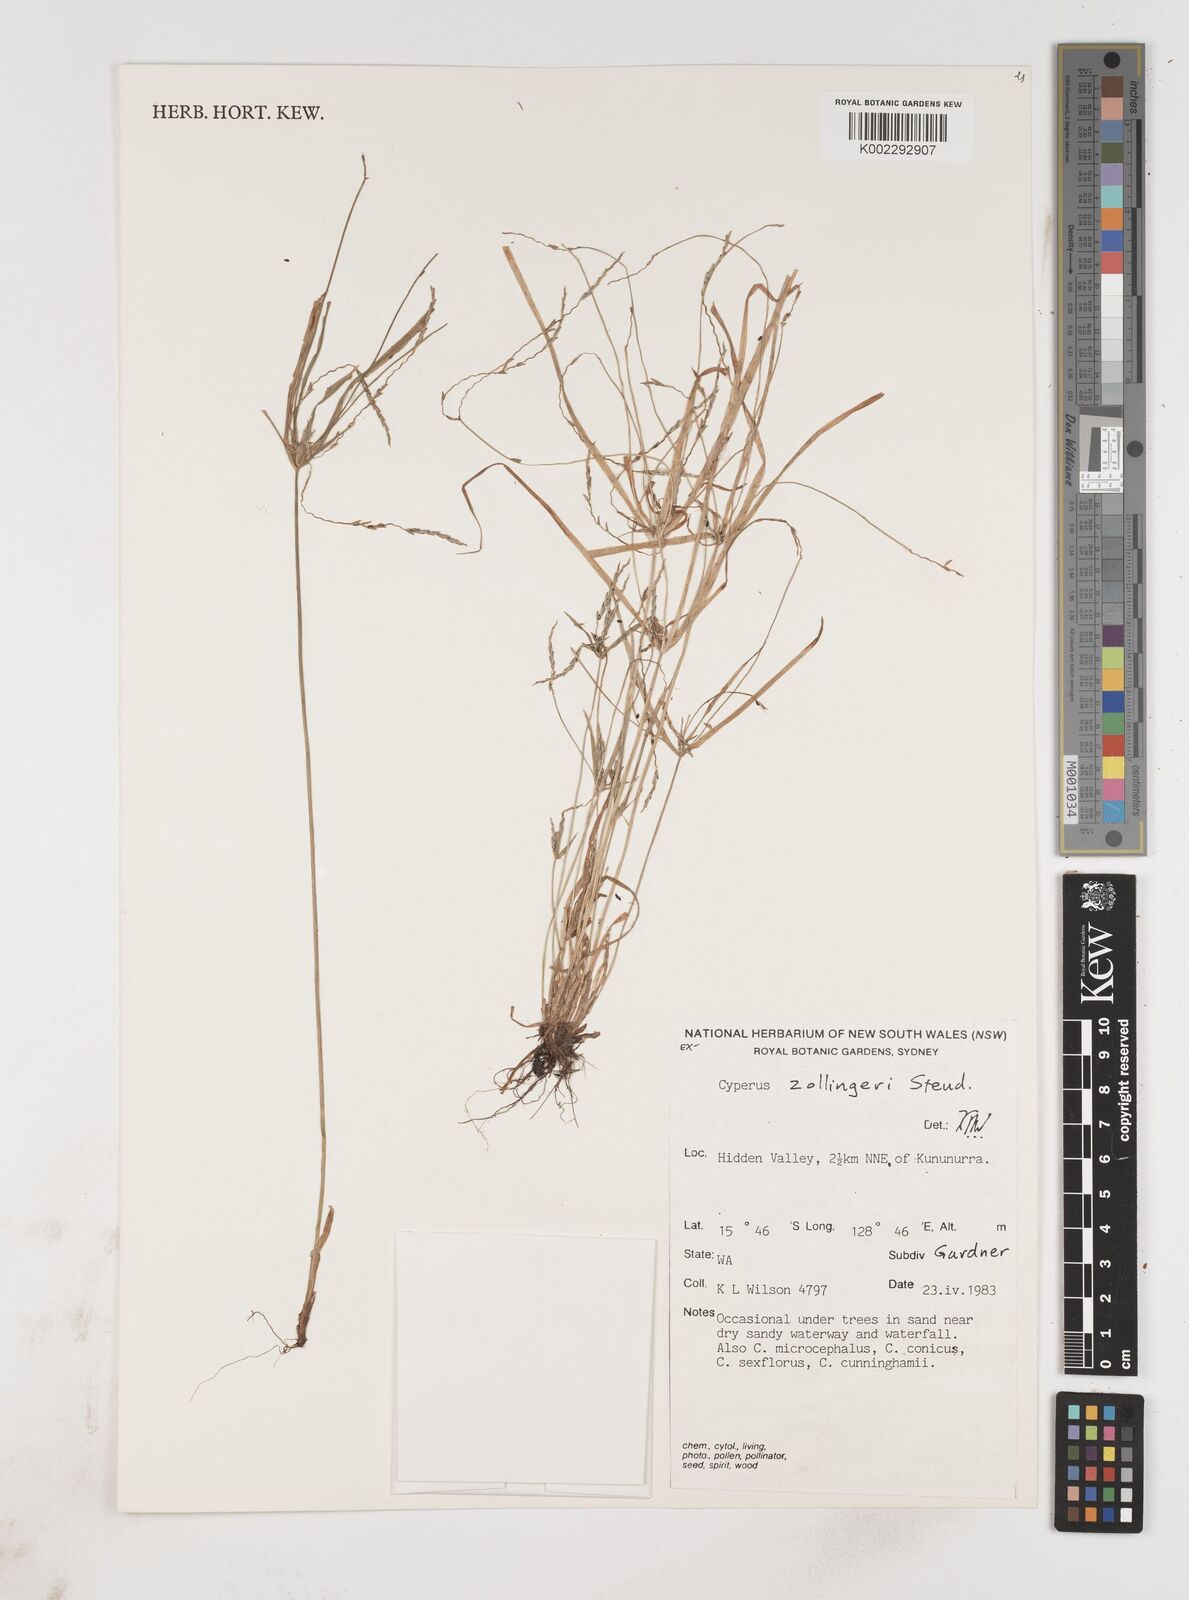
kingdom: Plantae
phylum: Tracheophyta
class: Liliopsida
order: Poales
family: Cyperaceae
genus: Cyperus
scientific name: Cyperus zollingeri
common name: Roadside flatsedge
